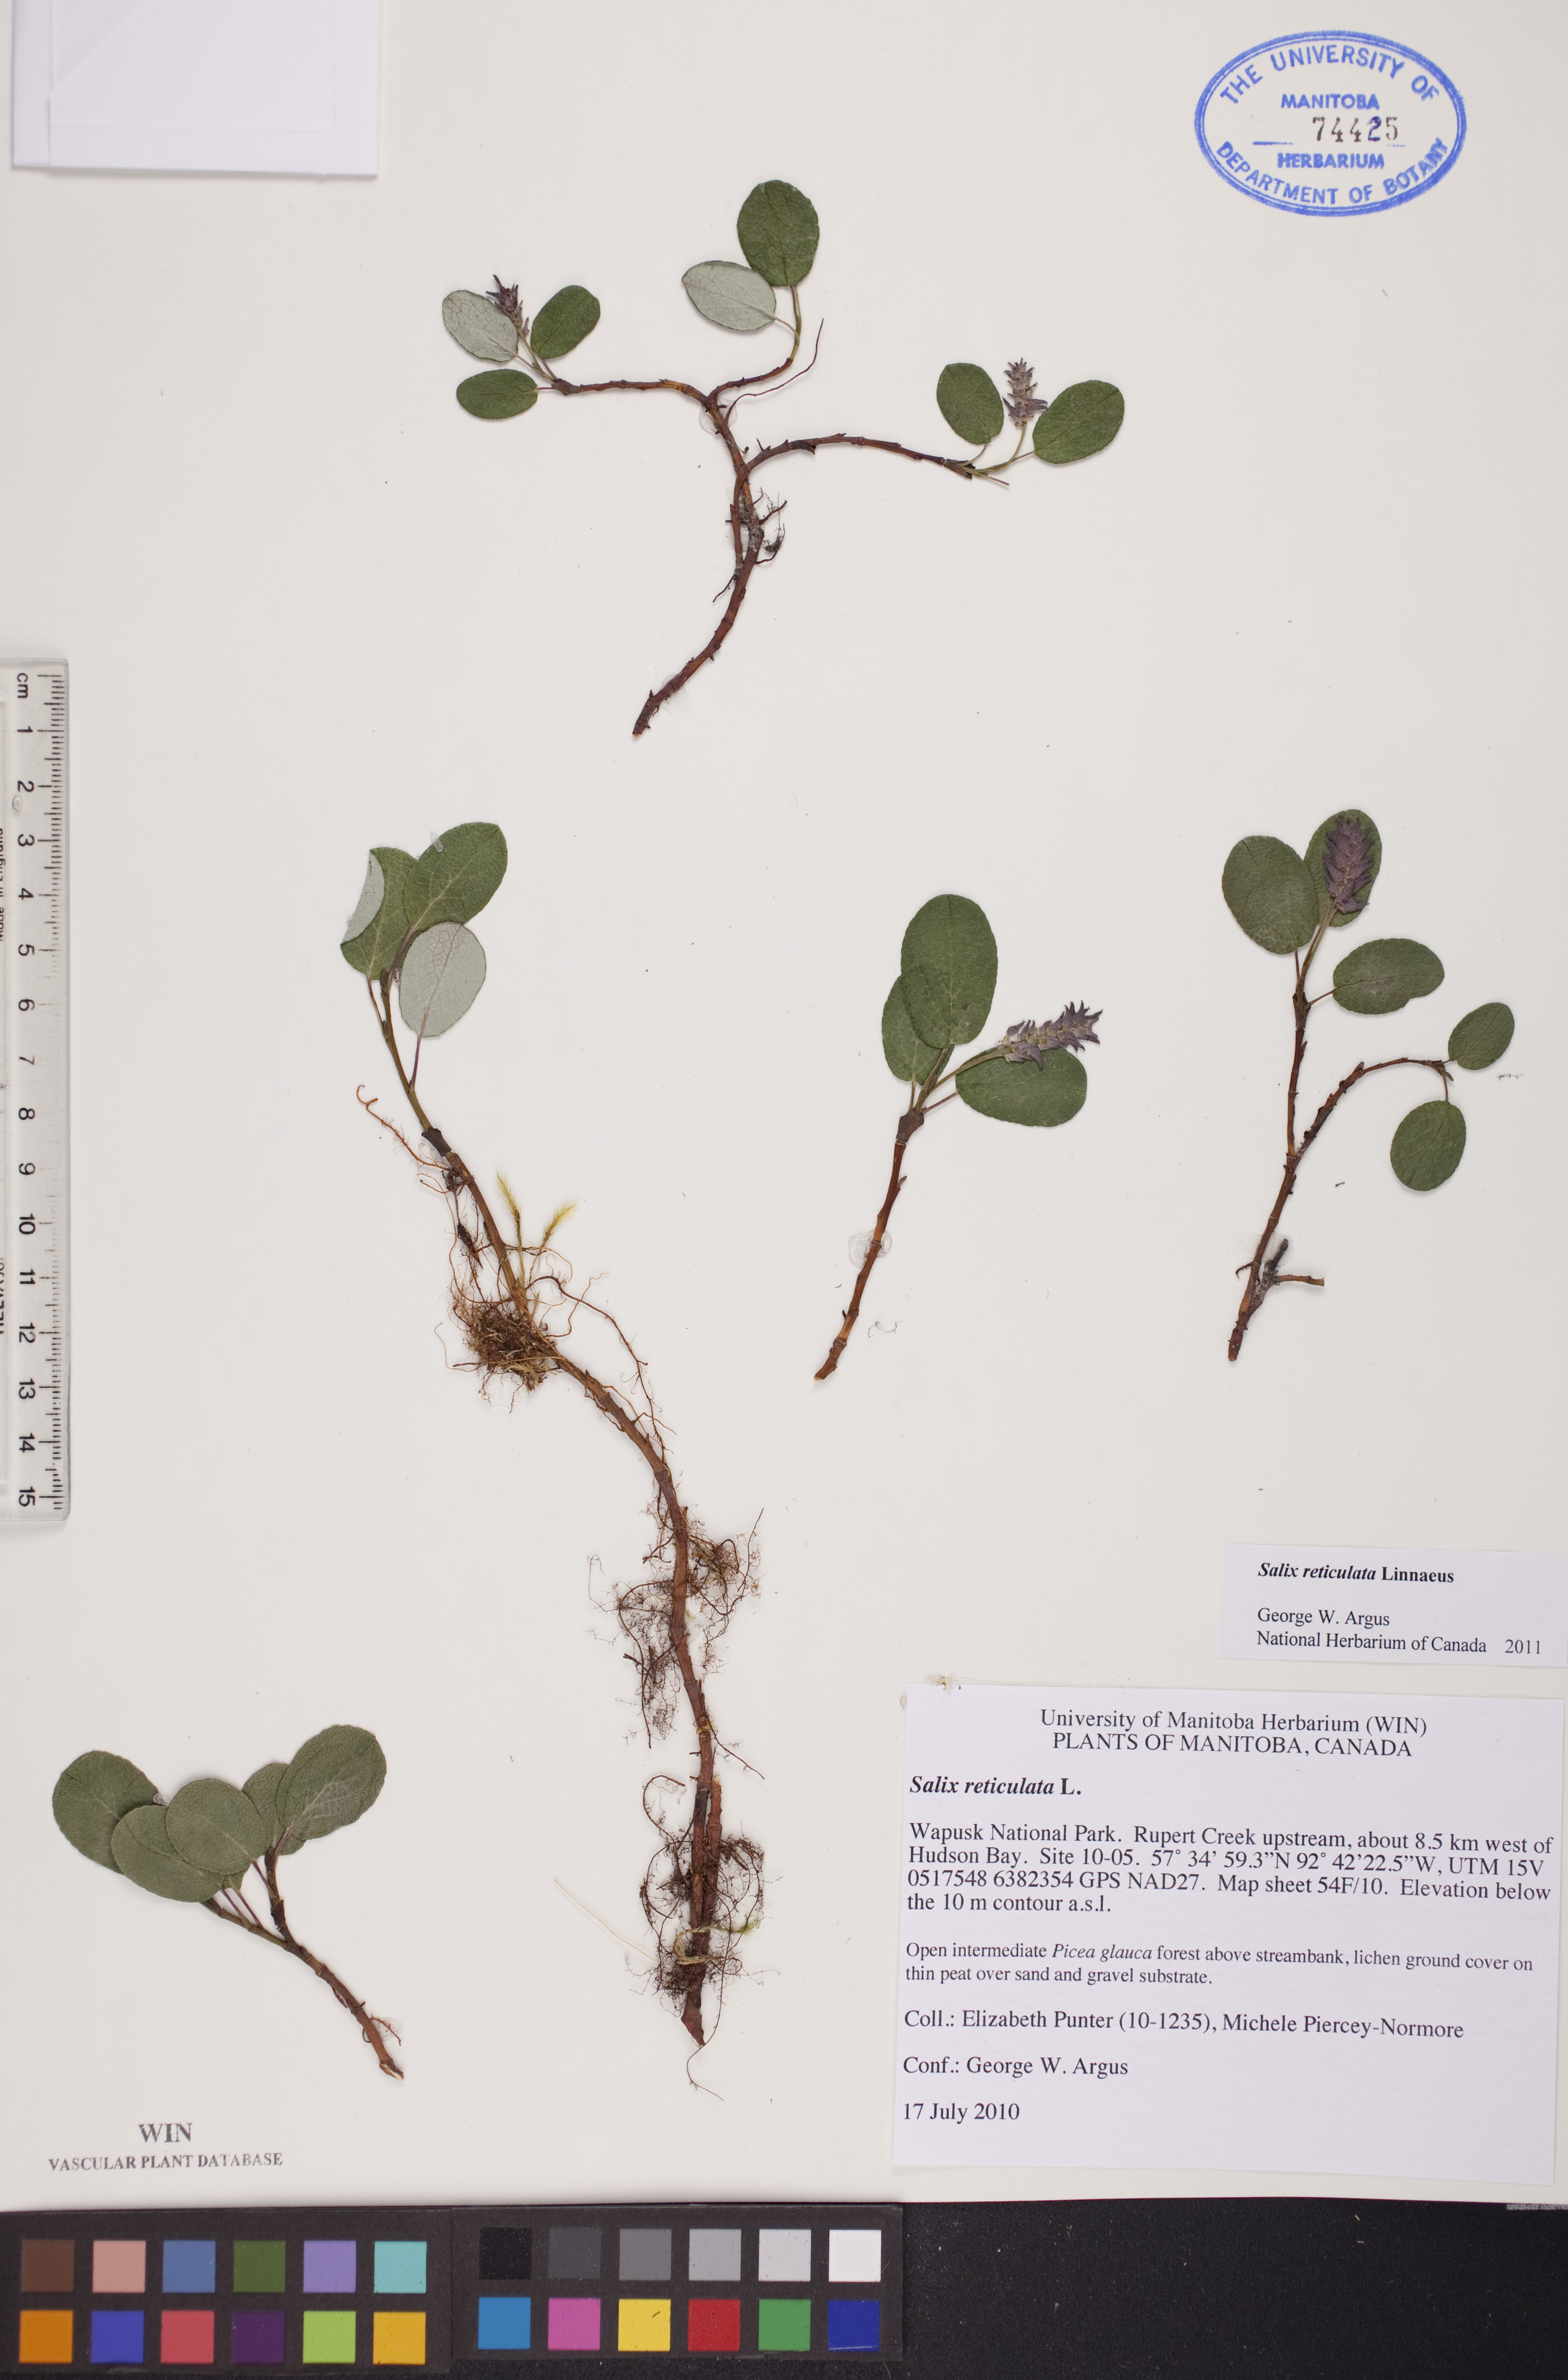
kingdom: Plantae
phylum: Tracheophyta
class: Magnoliopsida
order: Malpighiales
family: Salicaceae
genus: Salix
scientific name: Salix reticulata
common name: Net-leaved willow
